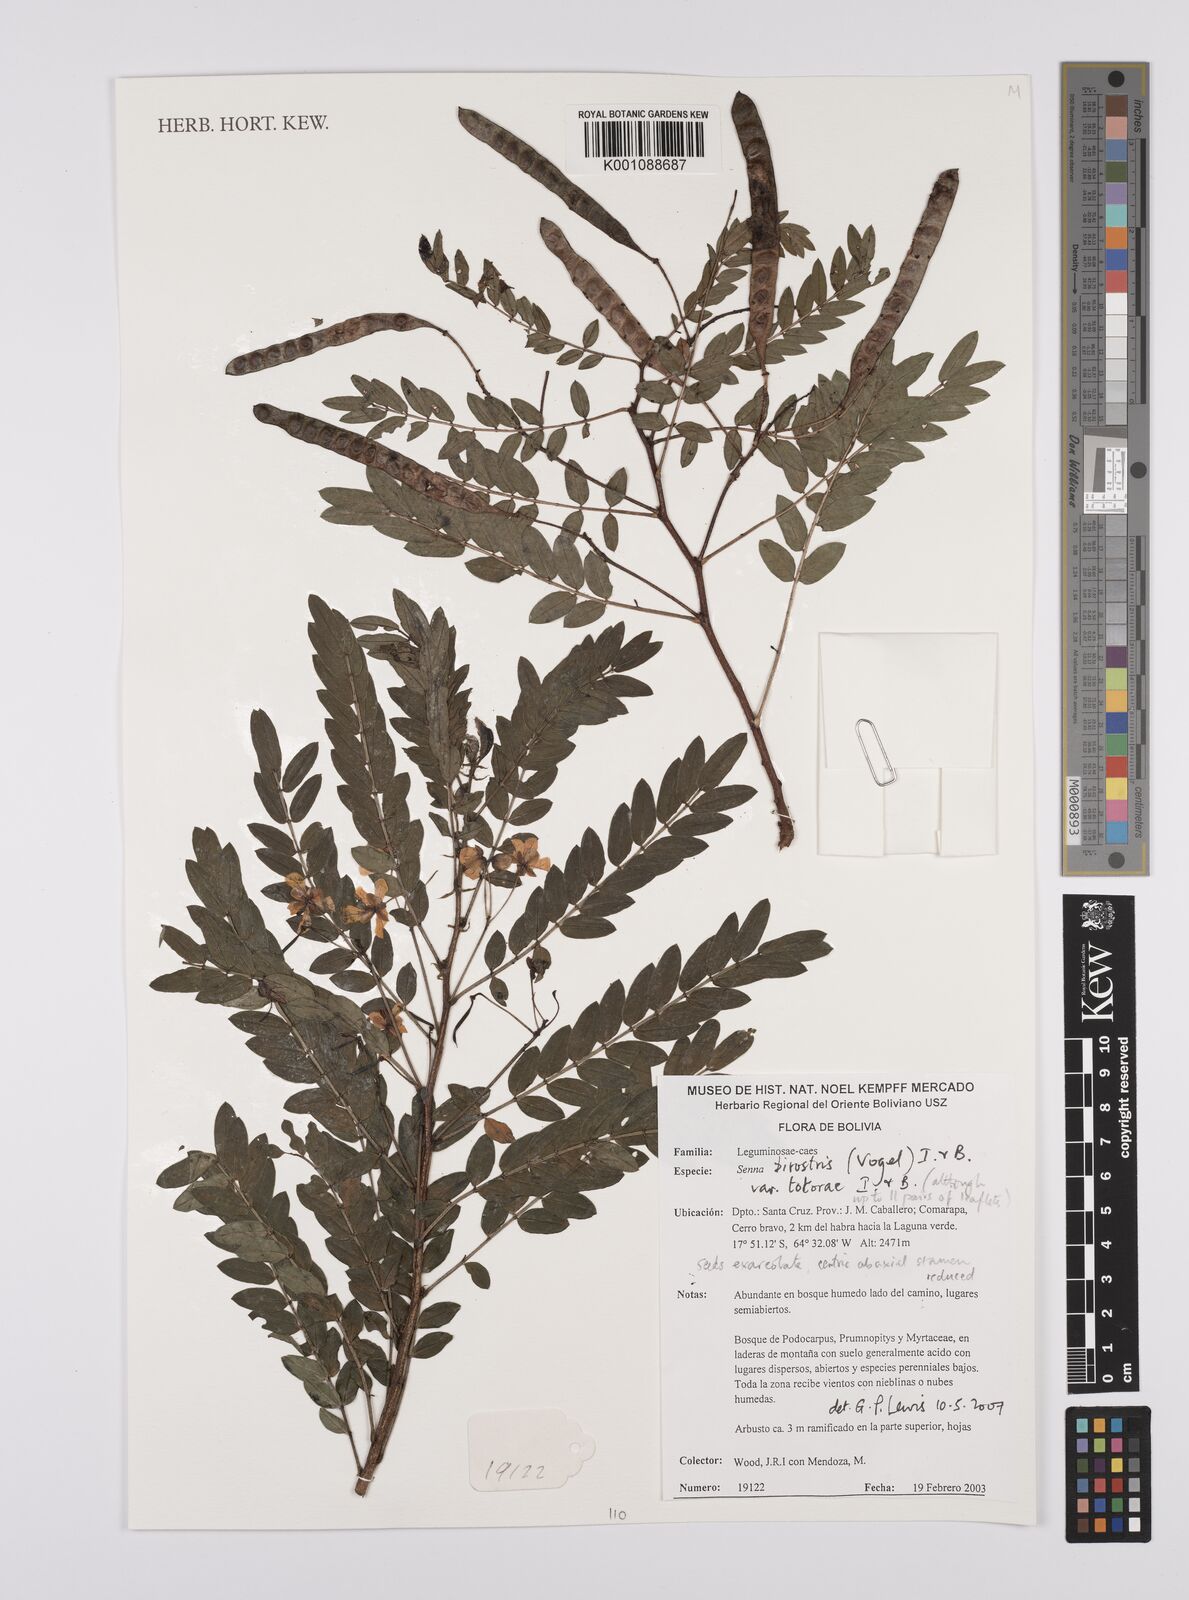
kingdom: Plantae
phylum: Tracheophyta
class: Magnoliopsida
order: Fabales
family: Fabaceae
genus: Senna
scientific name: Senna birostris
